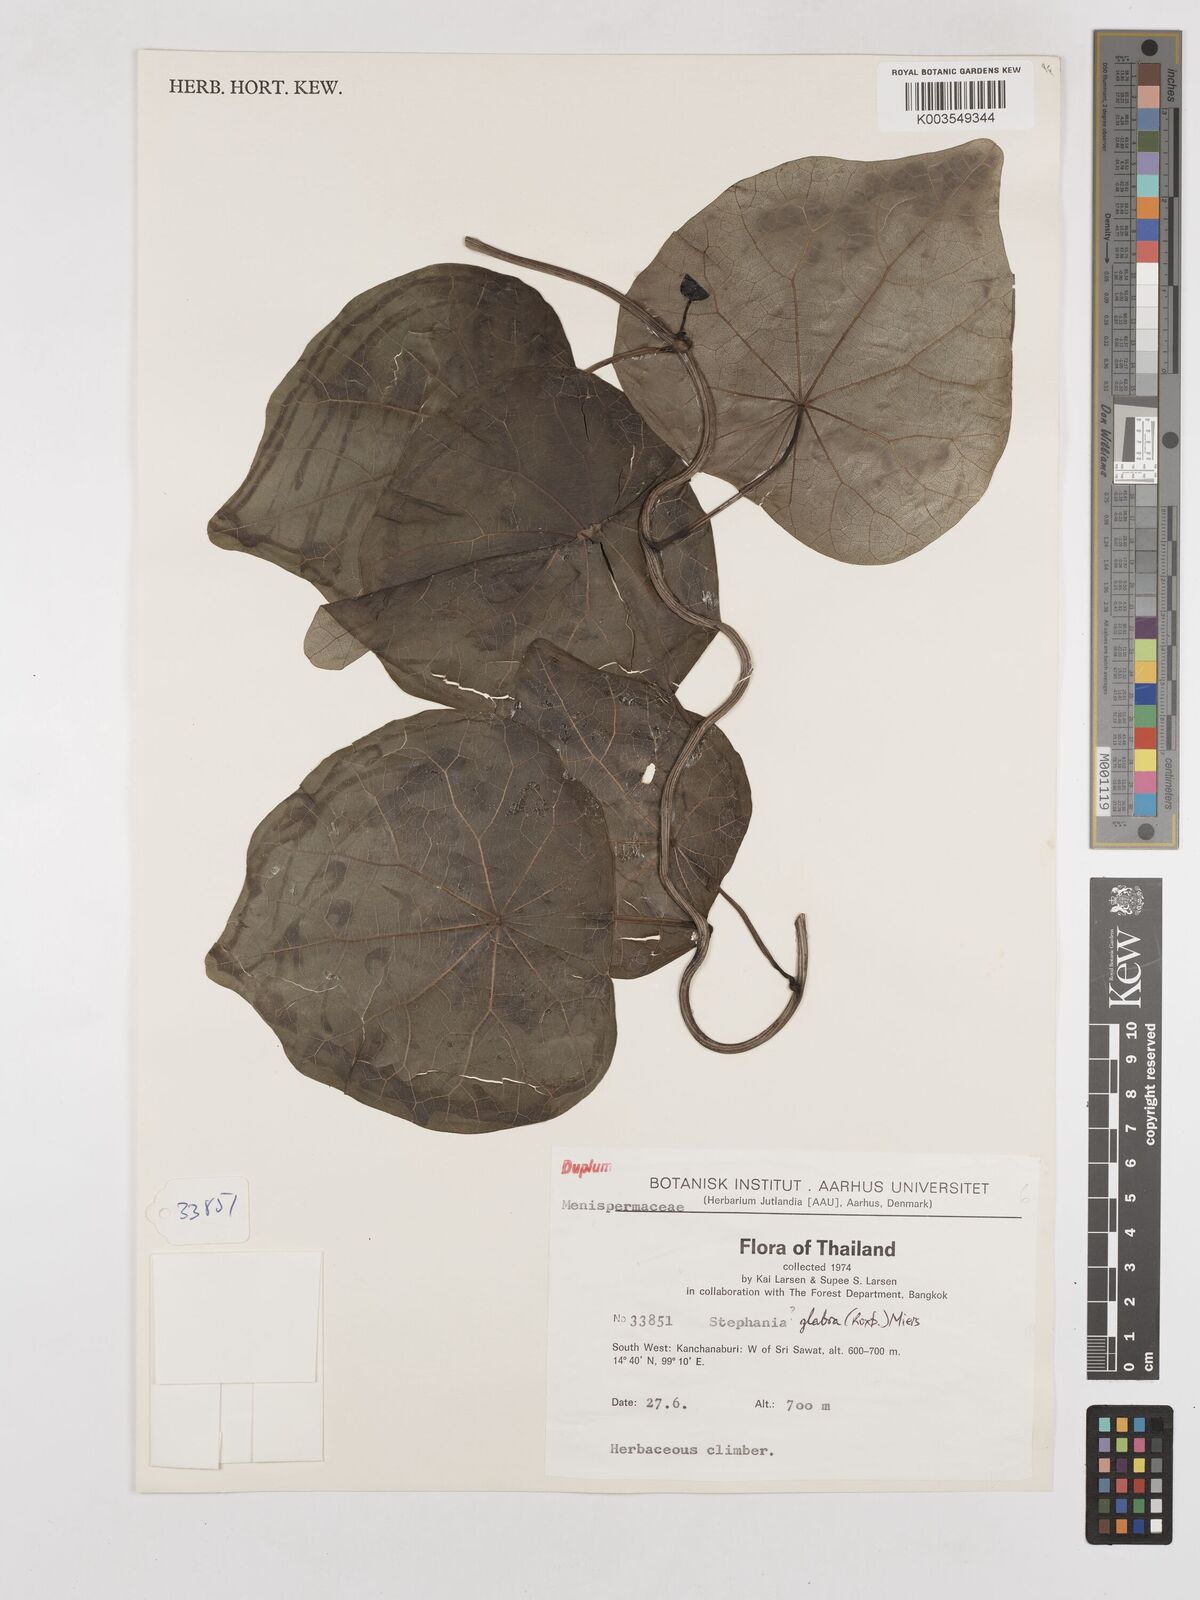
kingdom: Plantae
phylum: Tracheophyta
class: Magnoliopsida
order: Ranunculales
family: Menispermaceae
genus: Stephania
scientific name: Stephania rotunda
